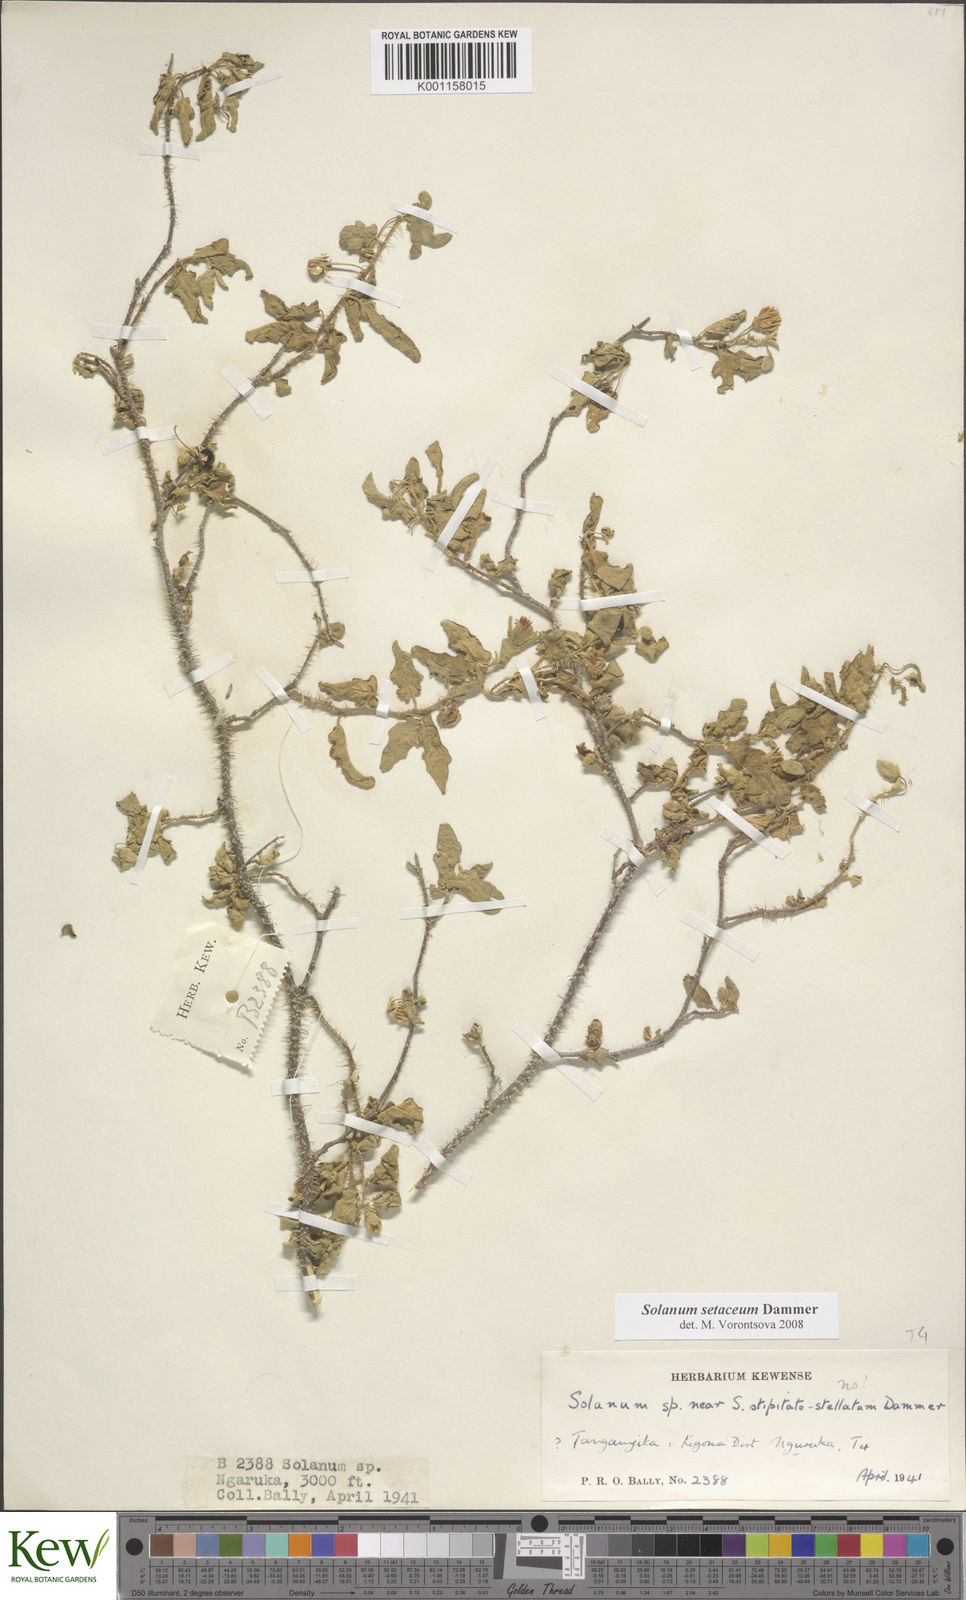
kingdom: Plantae
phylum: Tracheophyta
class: Magnoliopsida
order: Solanales
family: Solanaceae
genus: Solanum
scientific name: Solanum setaceum
